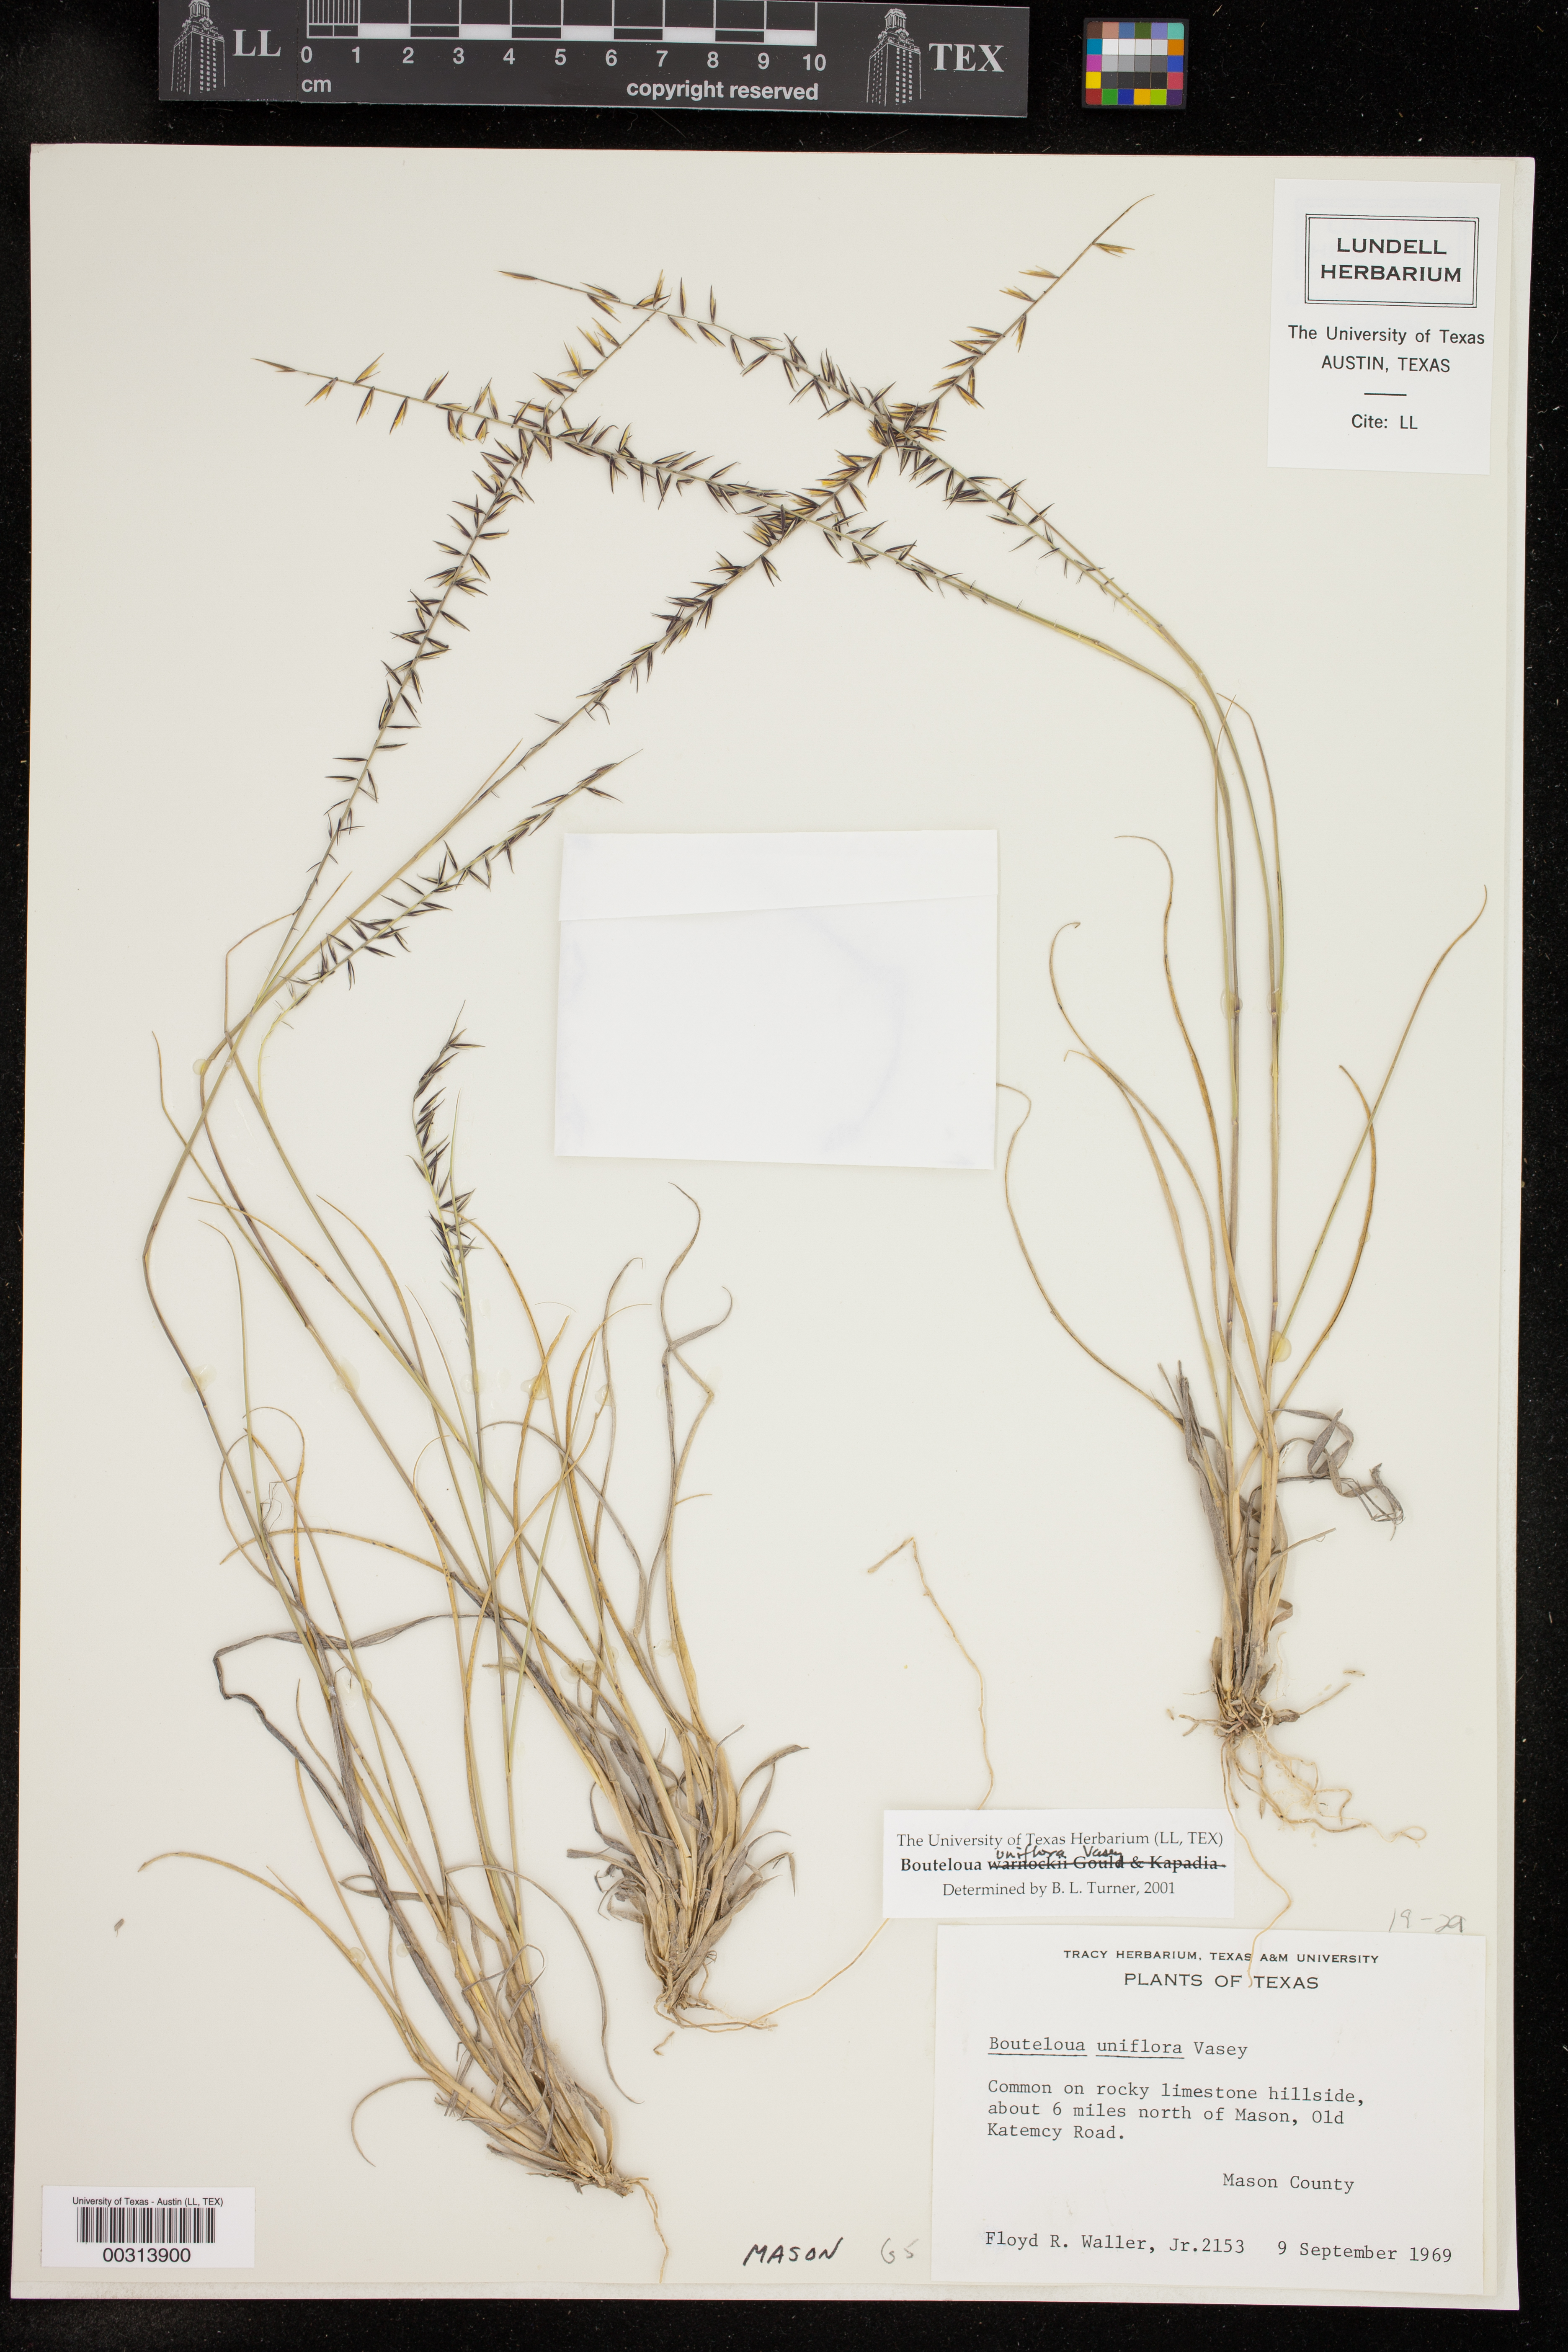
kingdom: Plantae
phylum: Tracheophyta
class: Liliopsida
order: Poales
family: Poaceae
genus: Bouteloua
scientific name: Bouteloua uniflora
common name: Neally's grama
